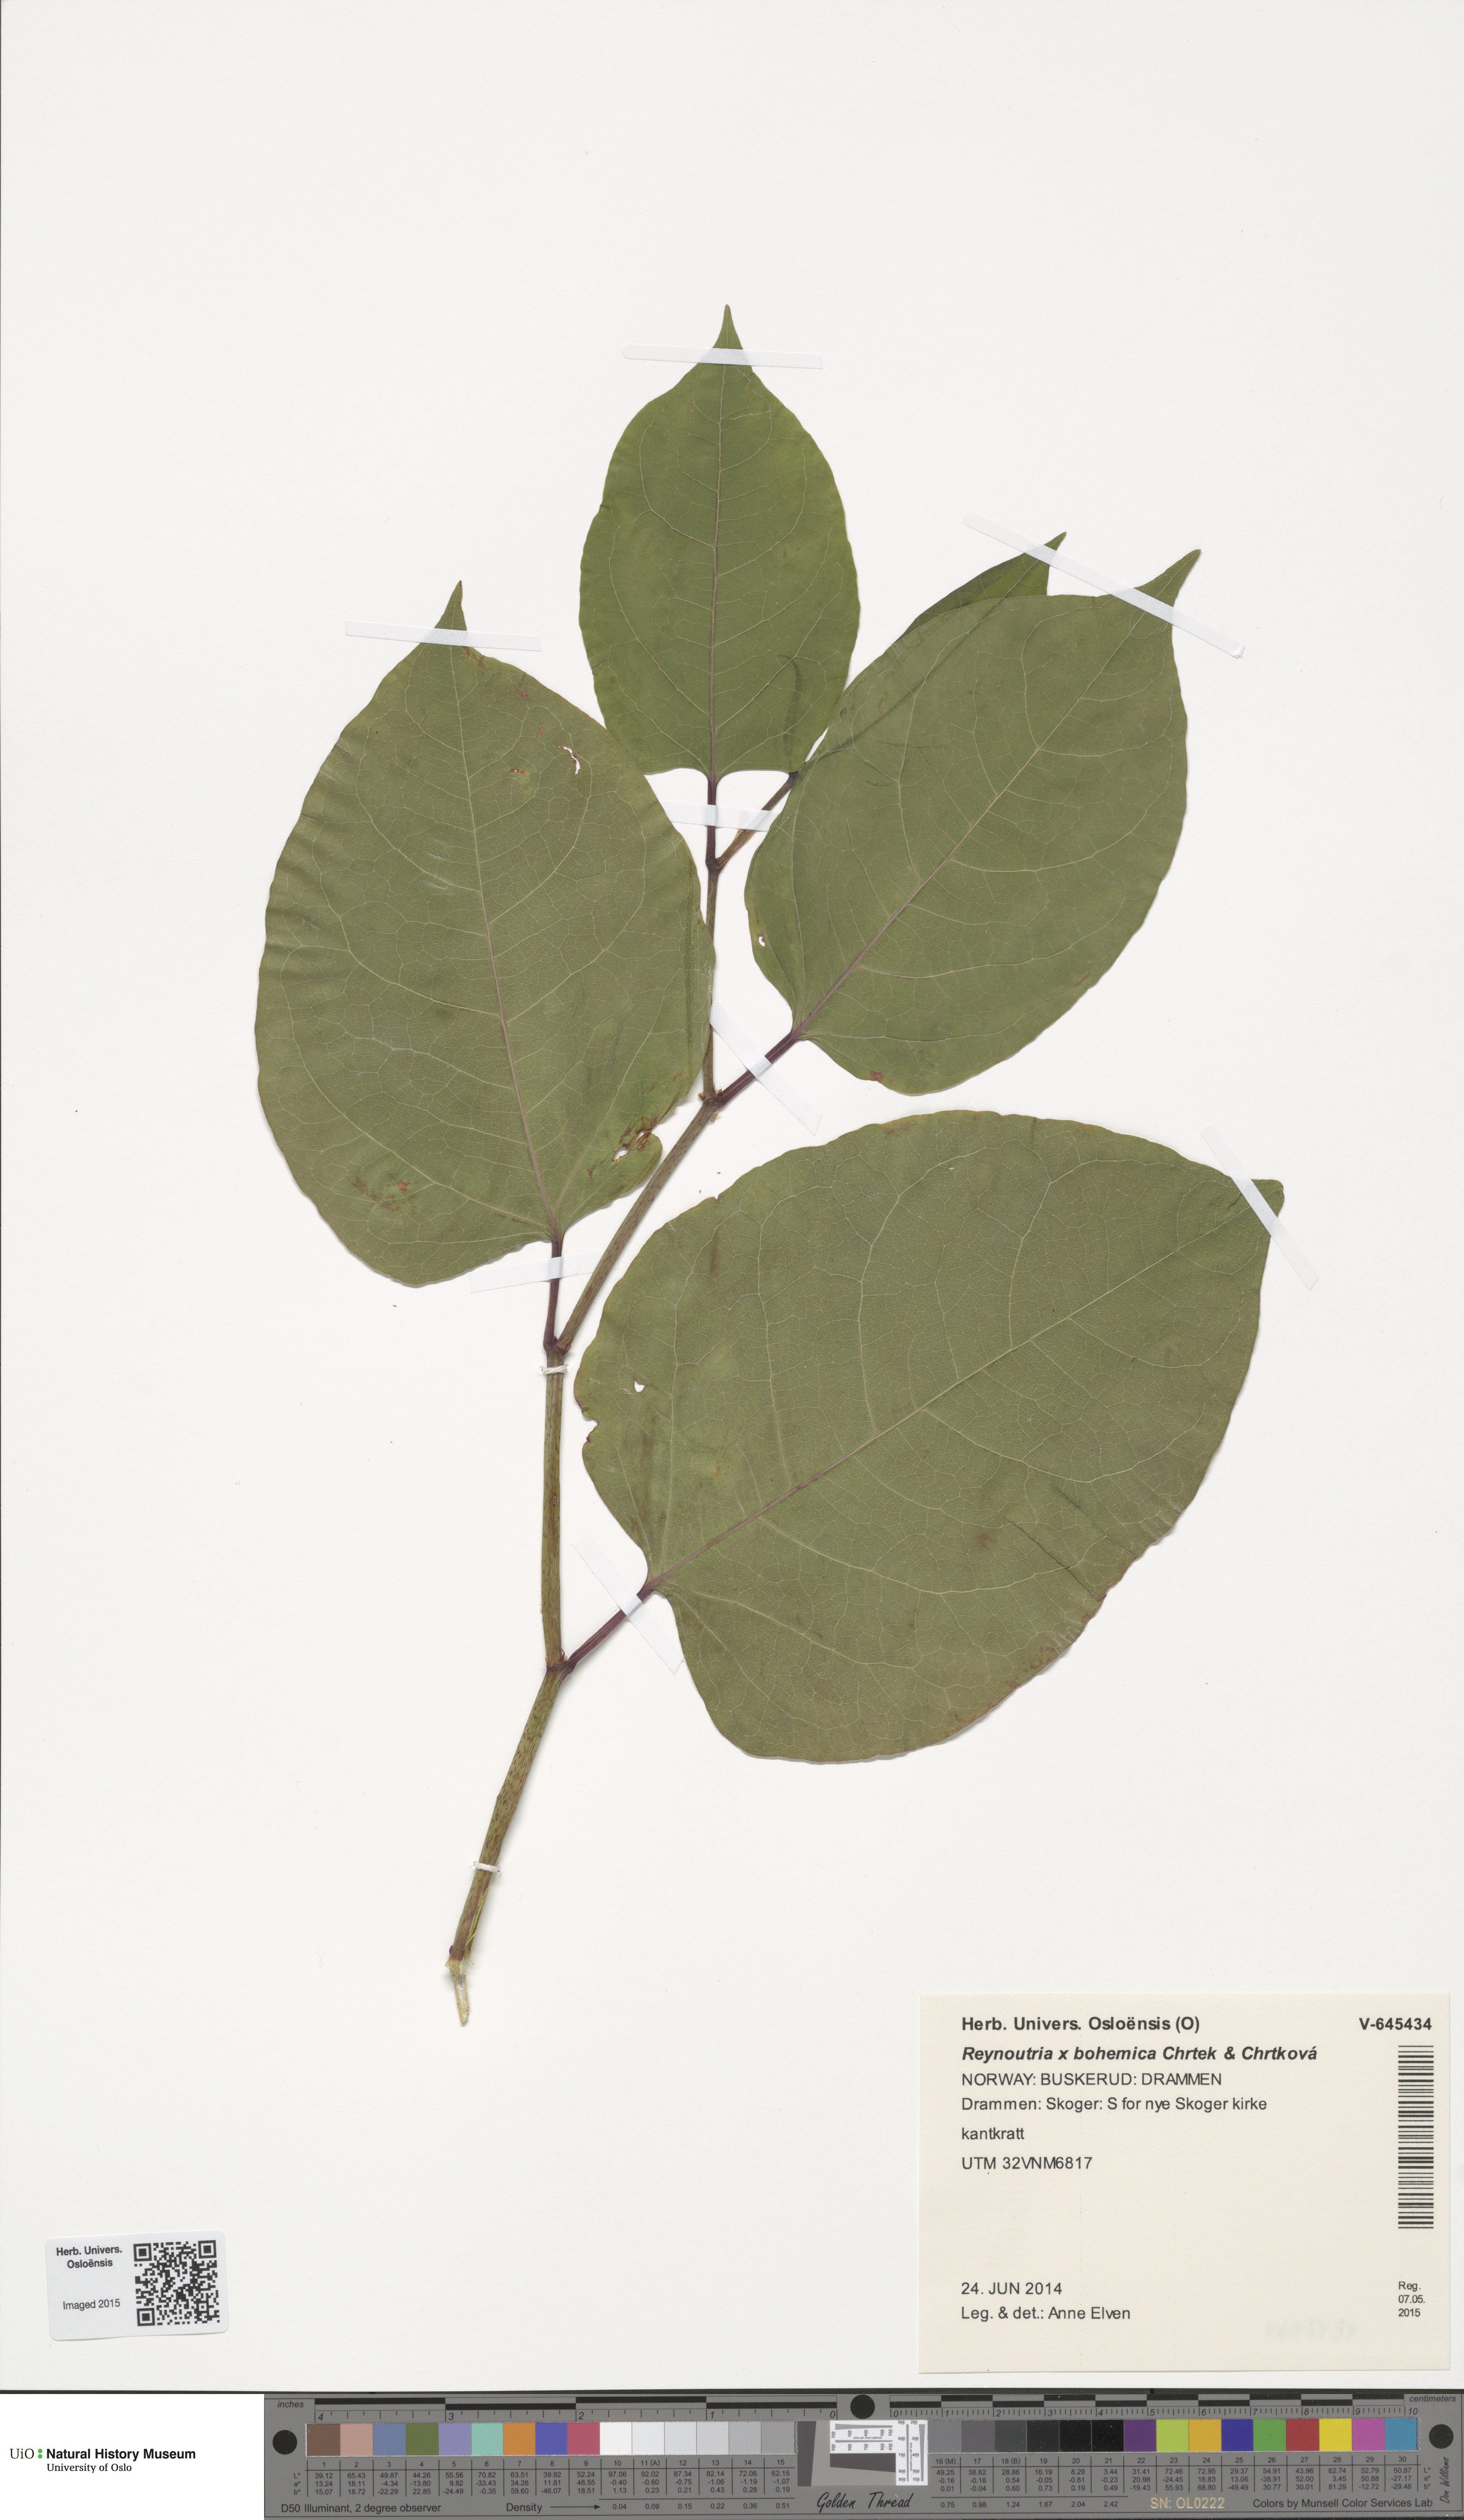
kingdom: Plantae
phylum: Tracheophyta
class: Magnoliopsida
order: Caryophyllales
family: Polygonaceae
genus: Reynoutria
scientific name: Reynoutria bohemica
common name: Bohemian knotweed
